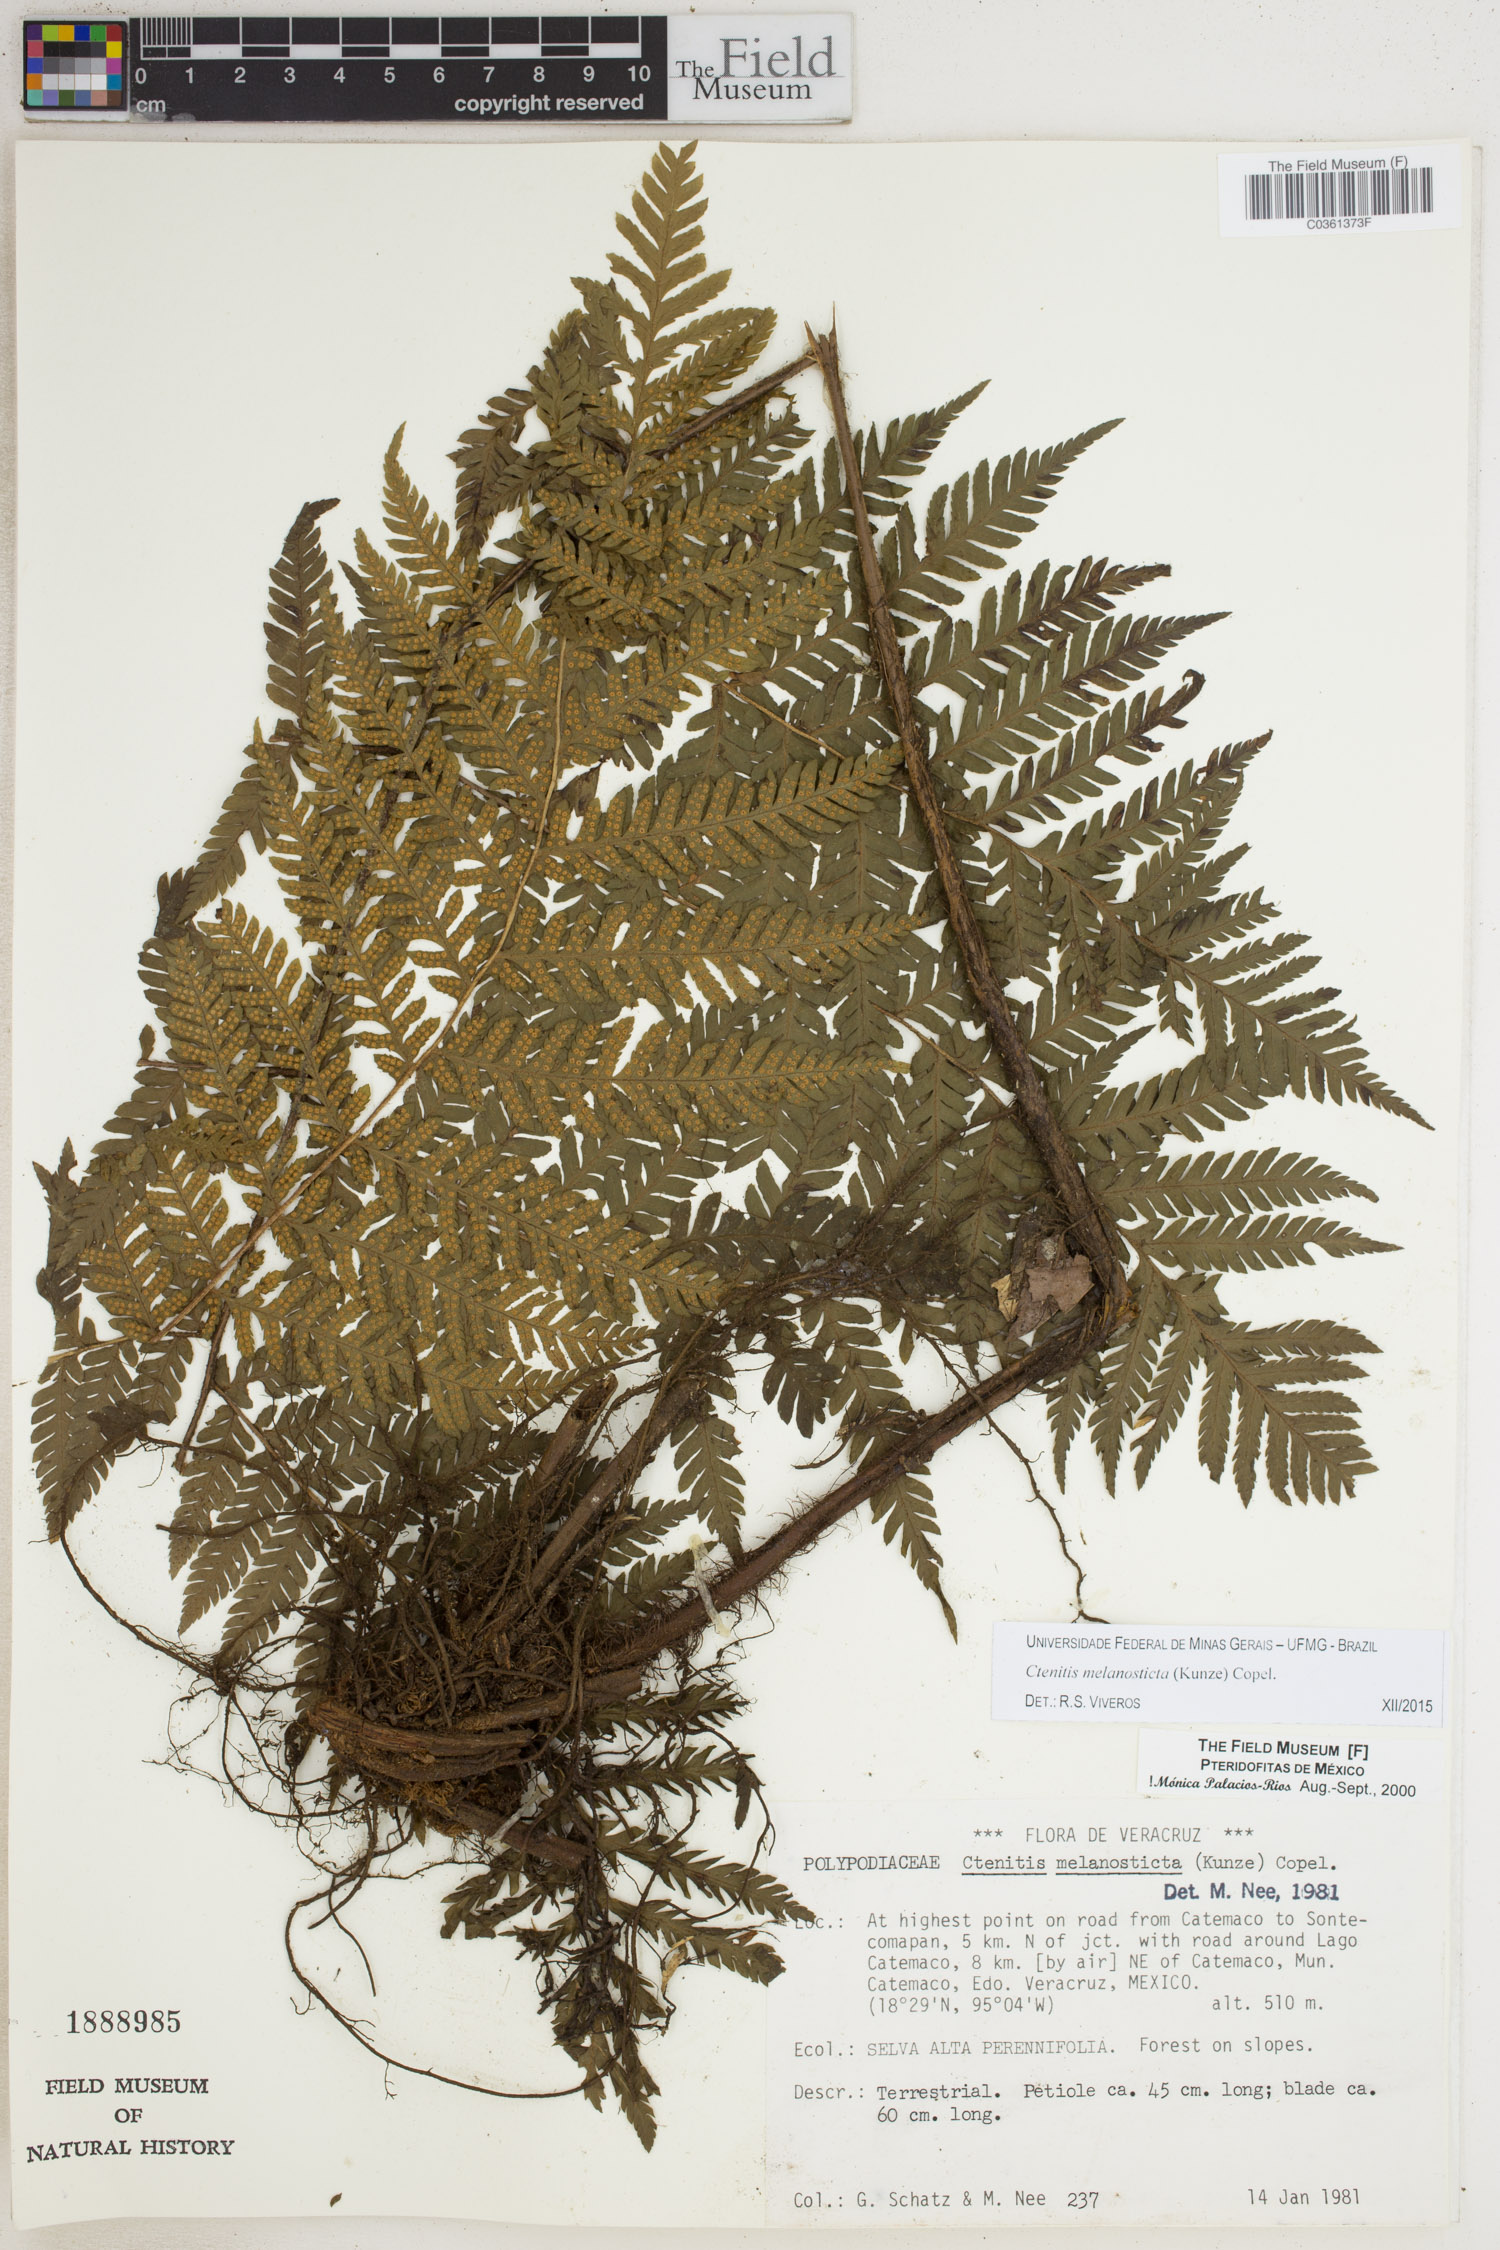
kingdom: Plantae
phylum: Tracheophyta
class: Polypodiopsida
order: Polypodiales
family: Dryopteridaceae
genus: Ctenitis
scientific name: Ctenitis melanosticta
